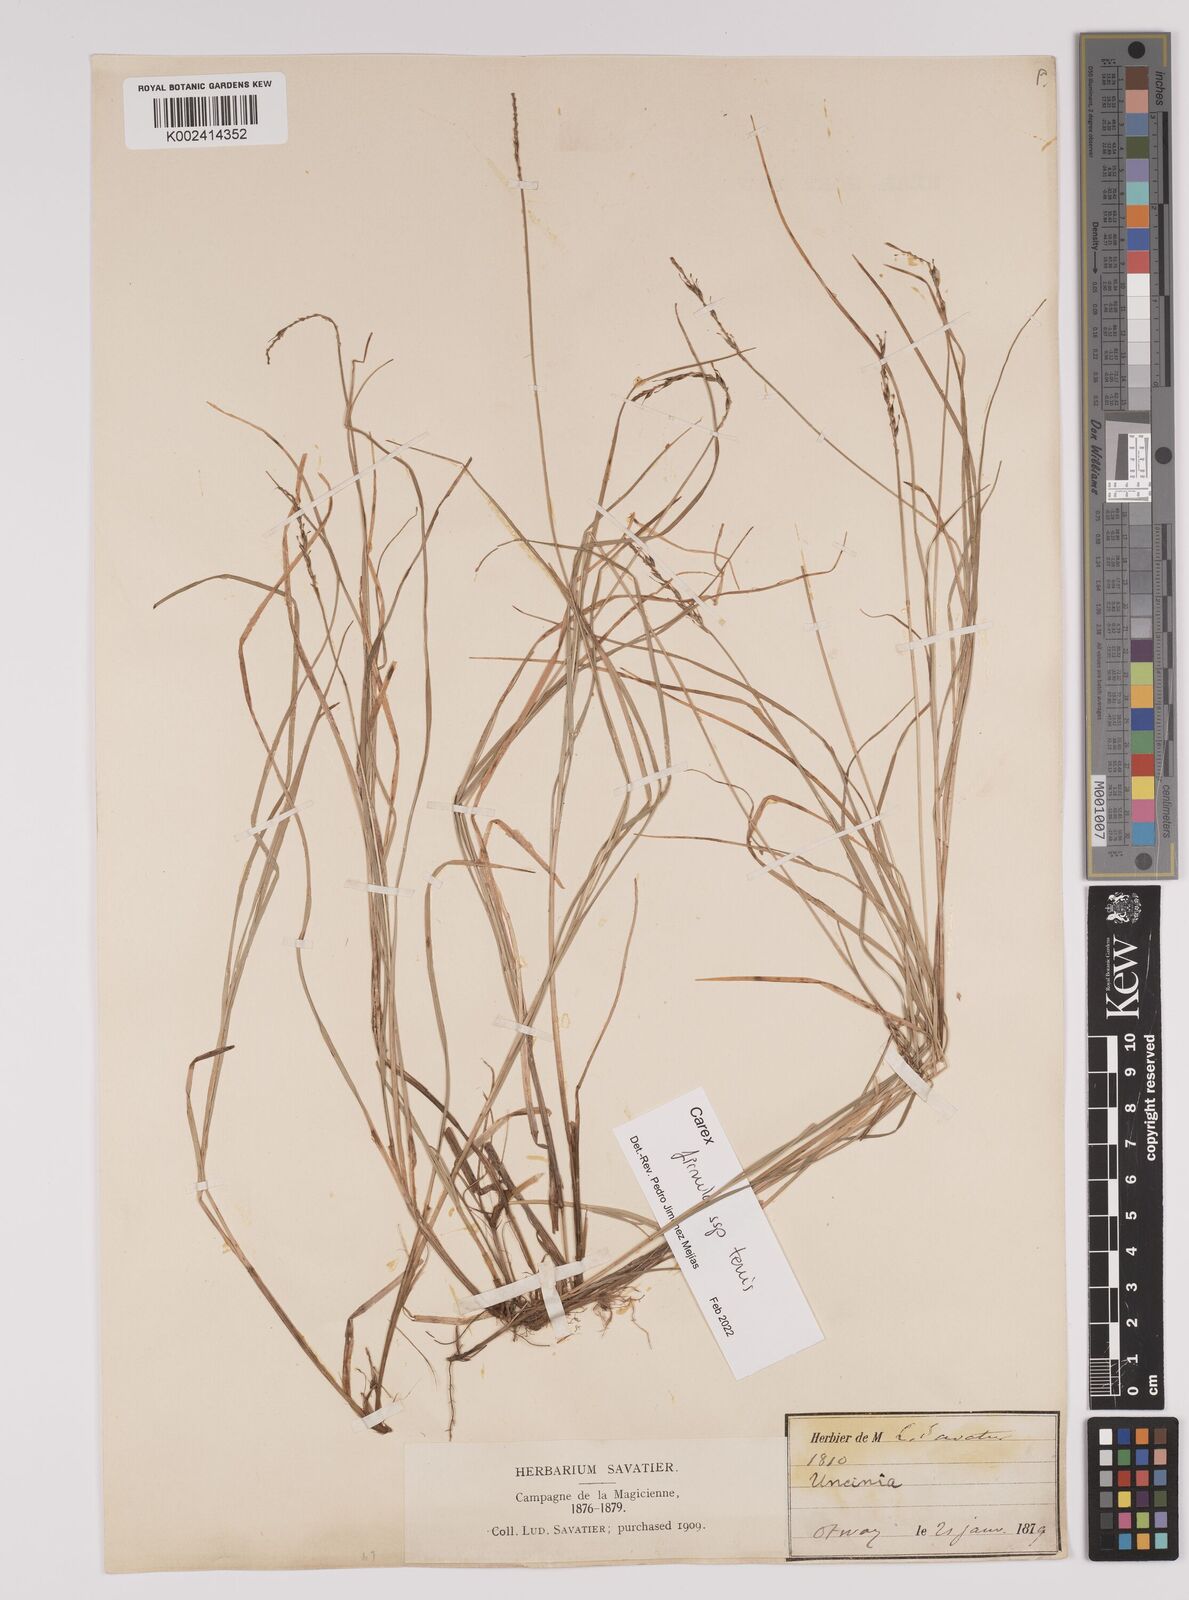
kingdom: Plantae
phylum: Tracheophyta
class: Liliopsida
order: Poales
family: Cyperaceae
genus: Carex
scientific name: Carex firmula
